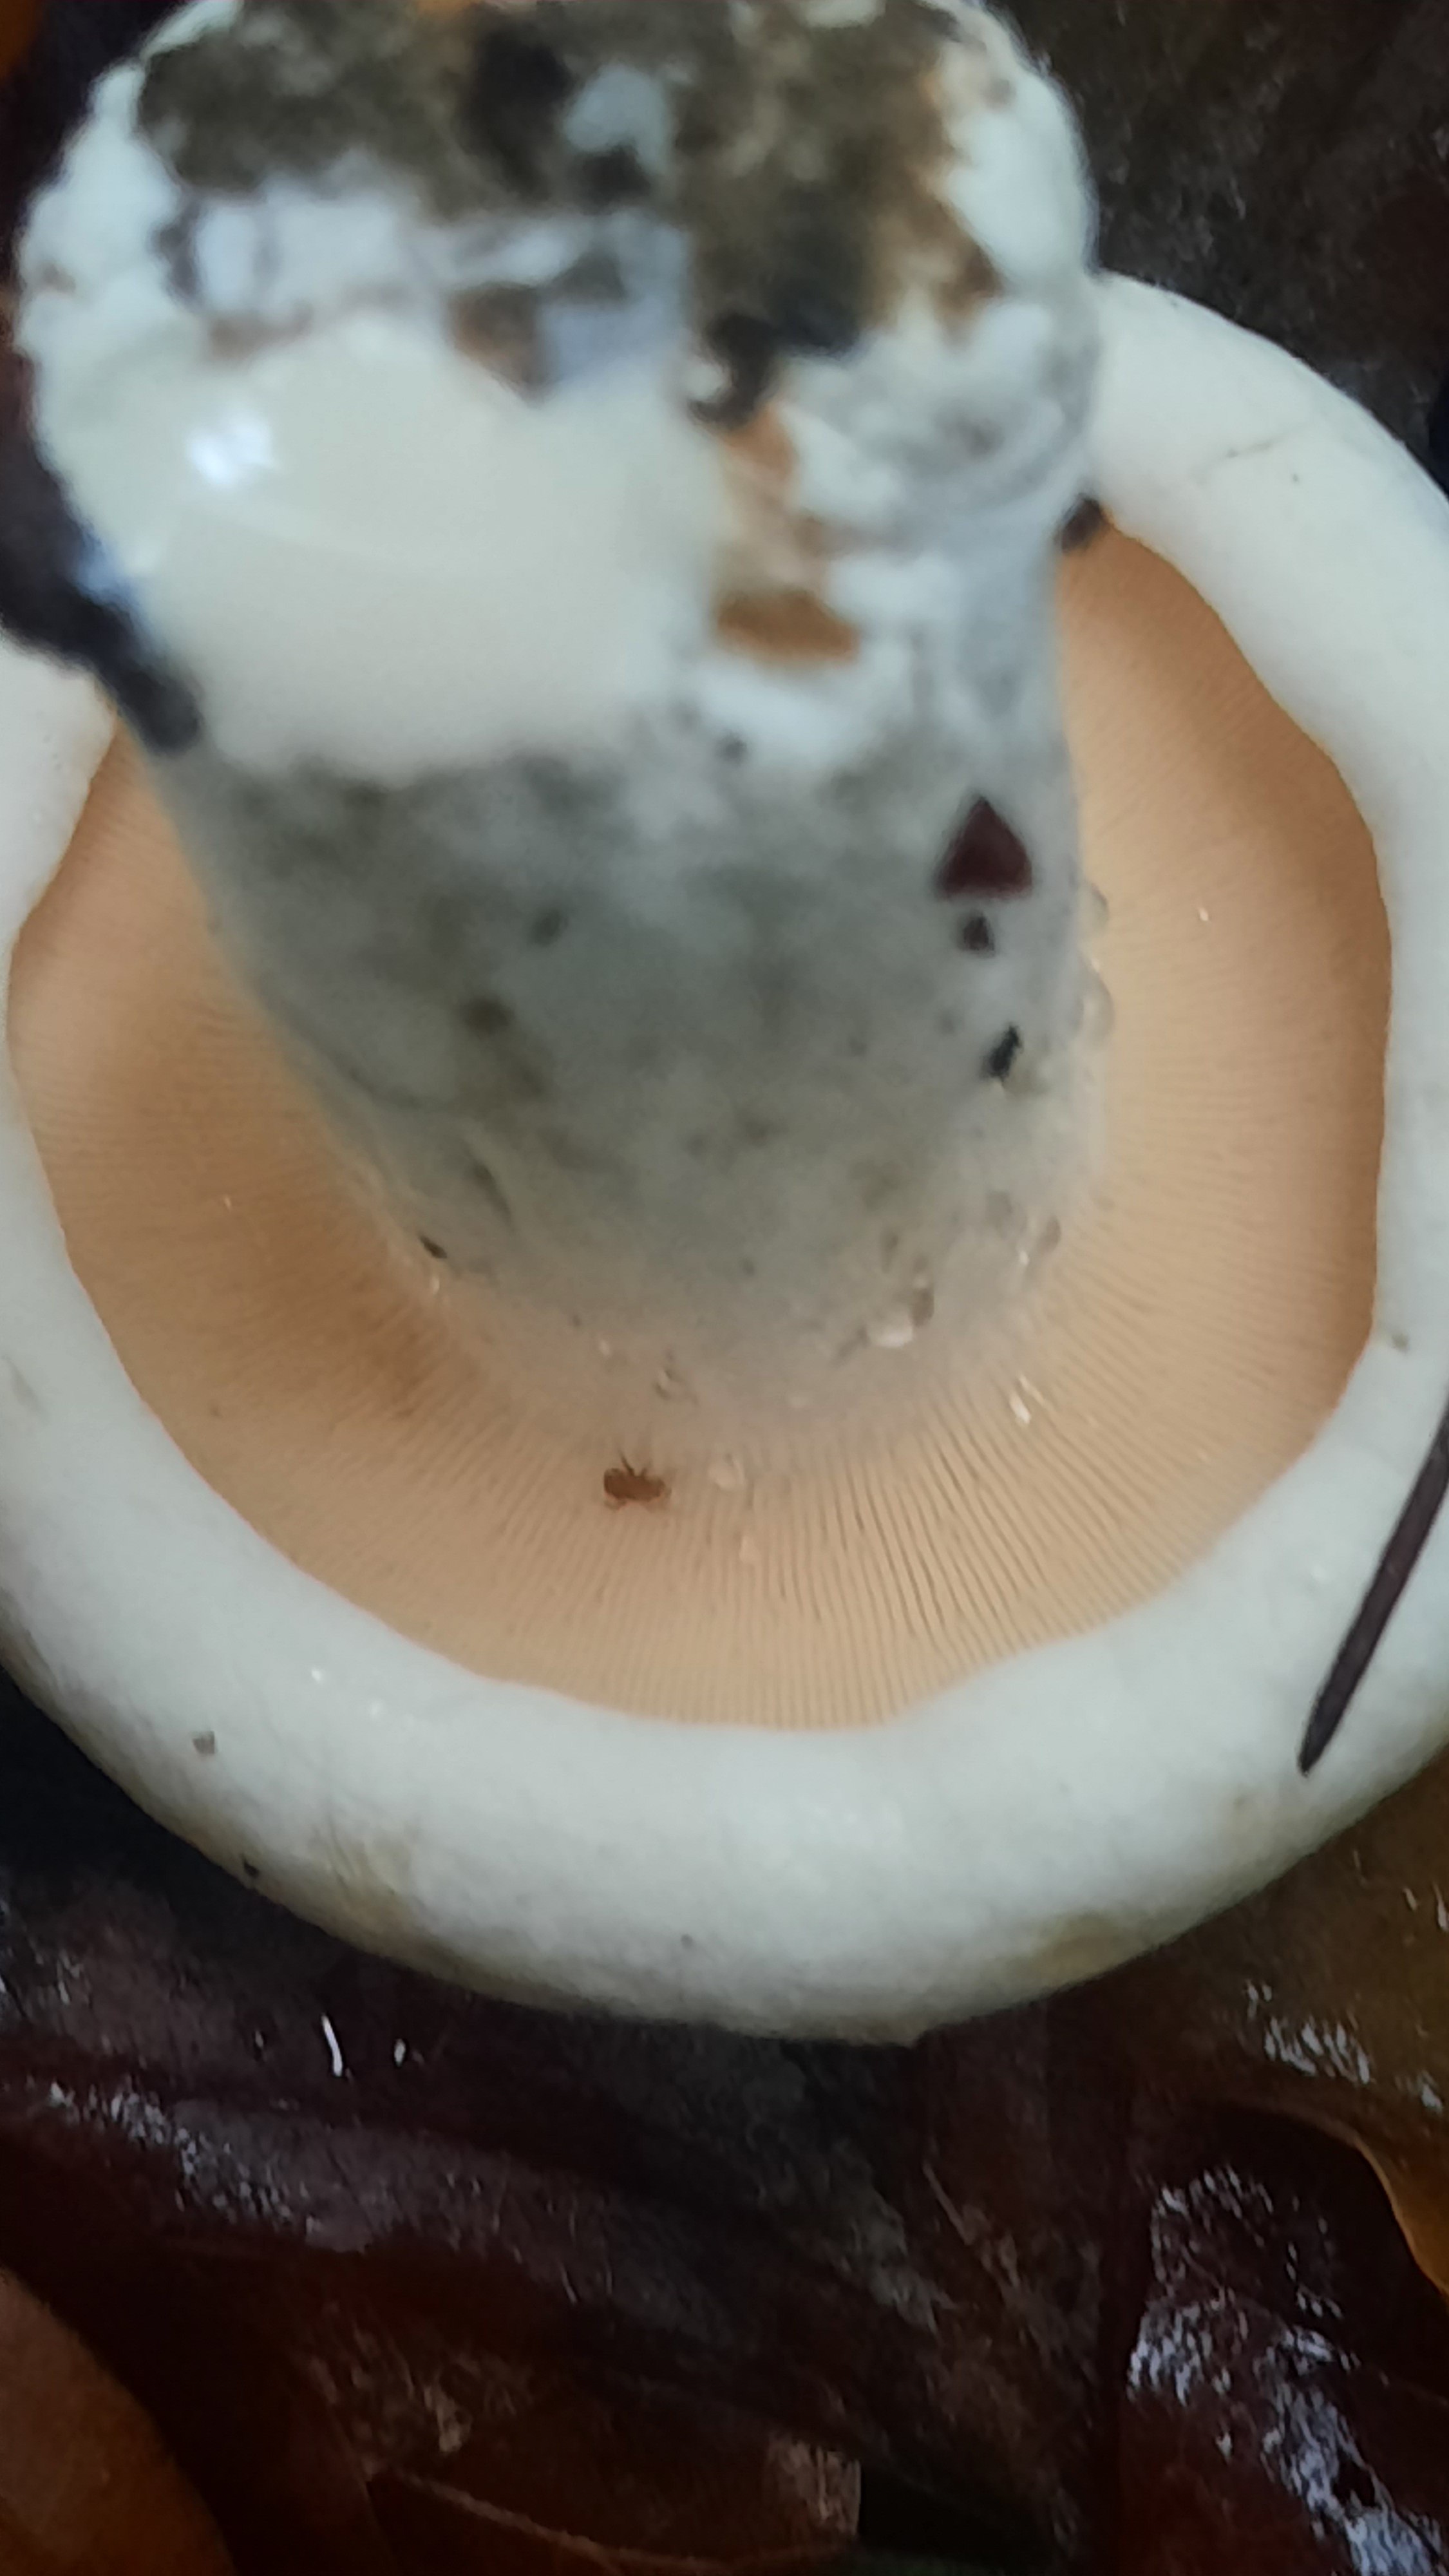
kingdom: Fungi
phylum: Basidiomycota
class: Agaricomycetes
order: Russulales
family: Russulaceae
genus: Lactifluus
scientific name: Lactifluus
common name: mælkehat
